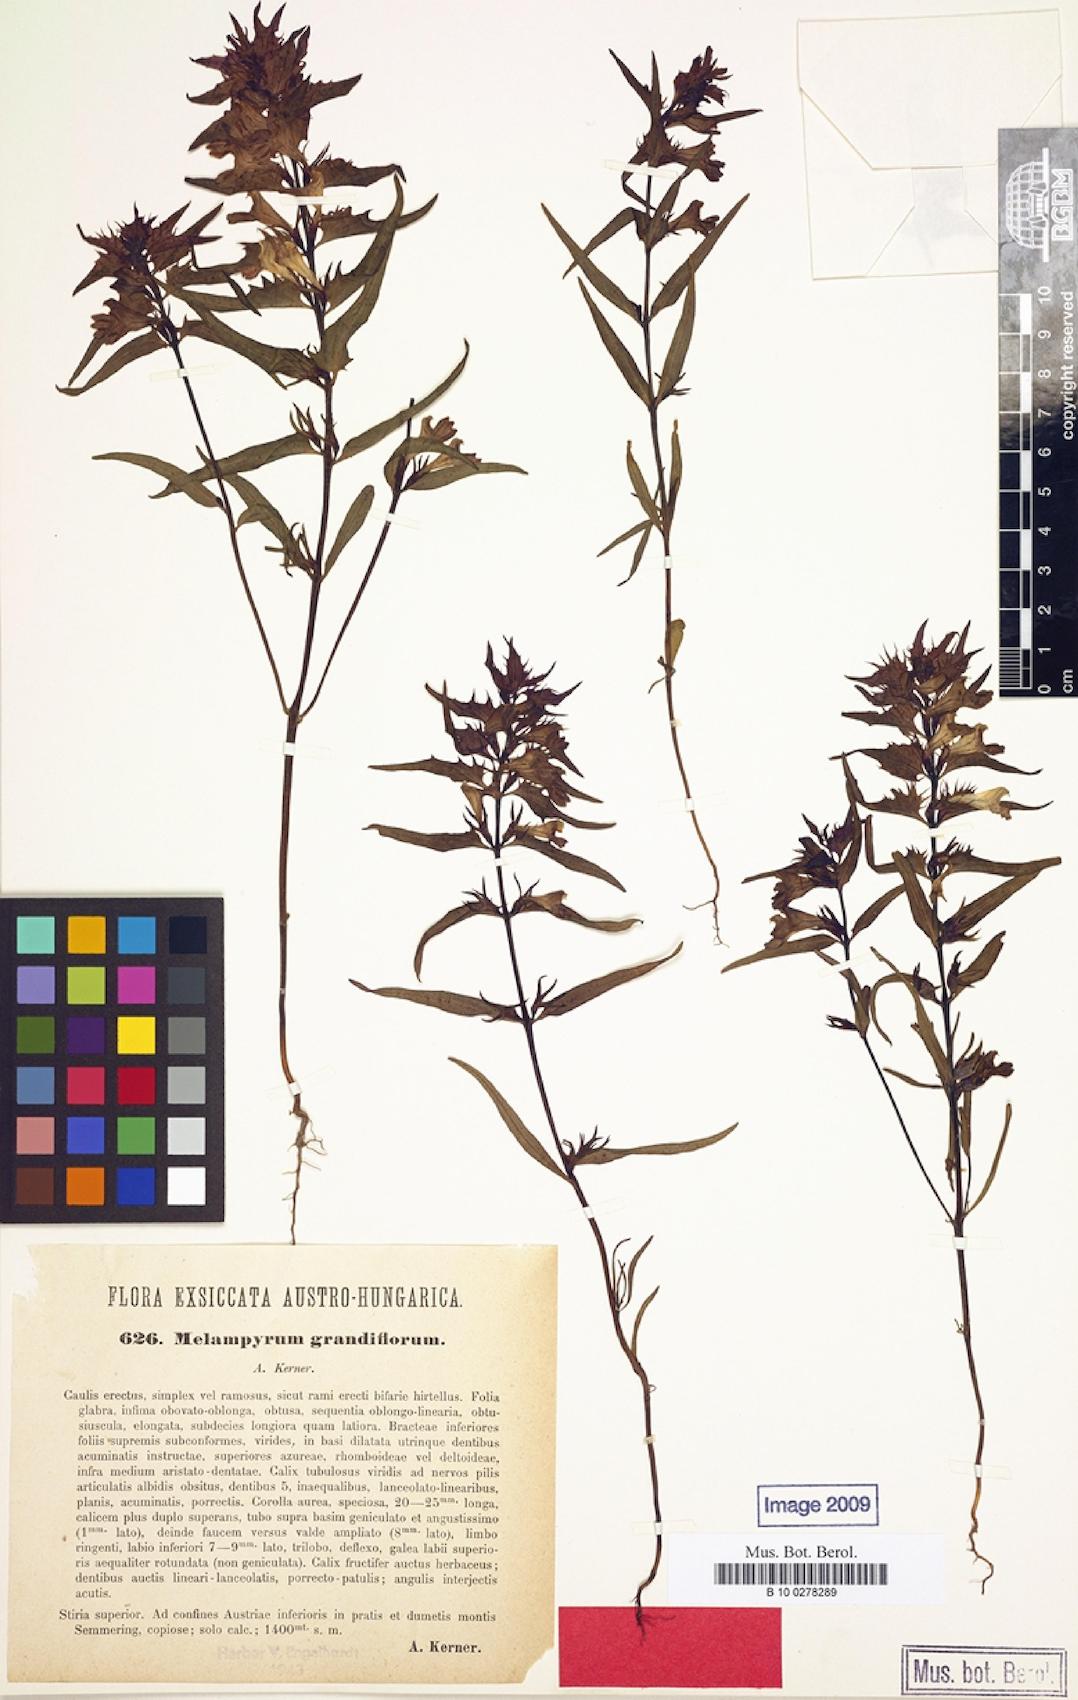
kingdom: Plantae
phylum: Tracheophyta
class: Magnoliopsida
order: Lamiales
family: Orobanchaceae
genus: Melampyrum
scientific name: Melampyrum subalpinum
